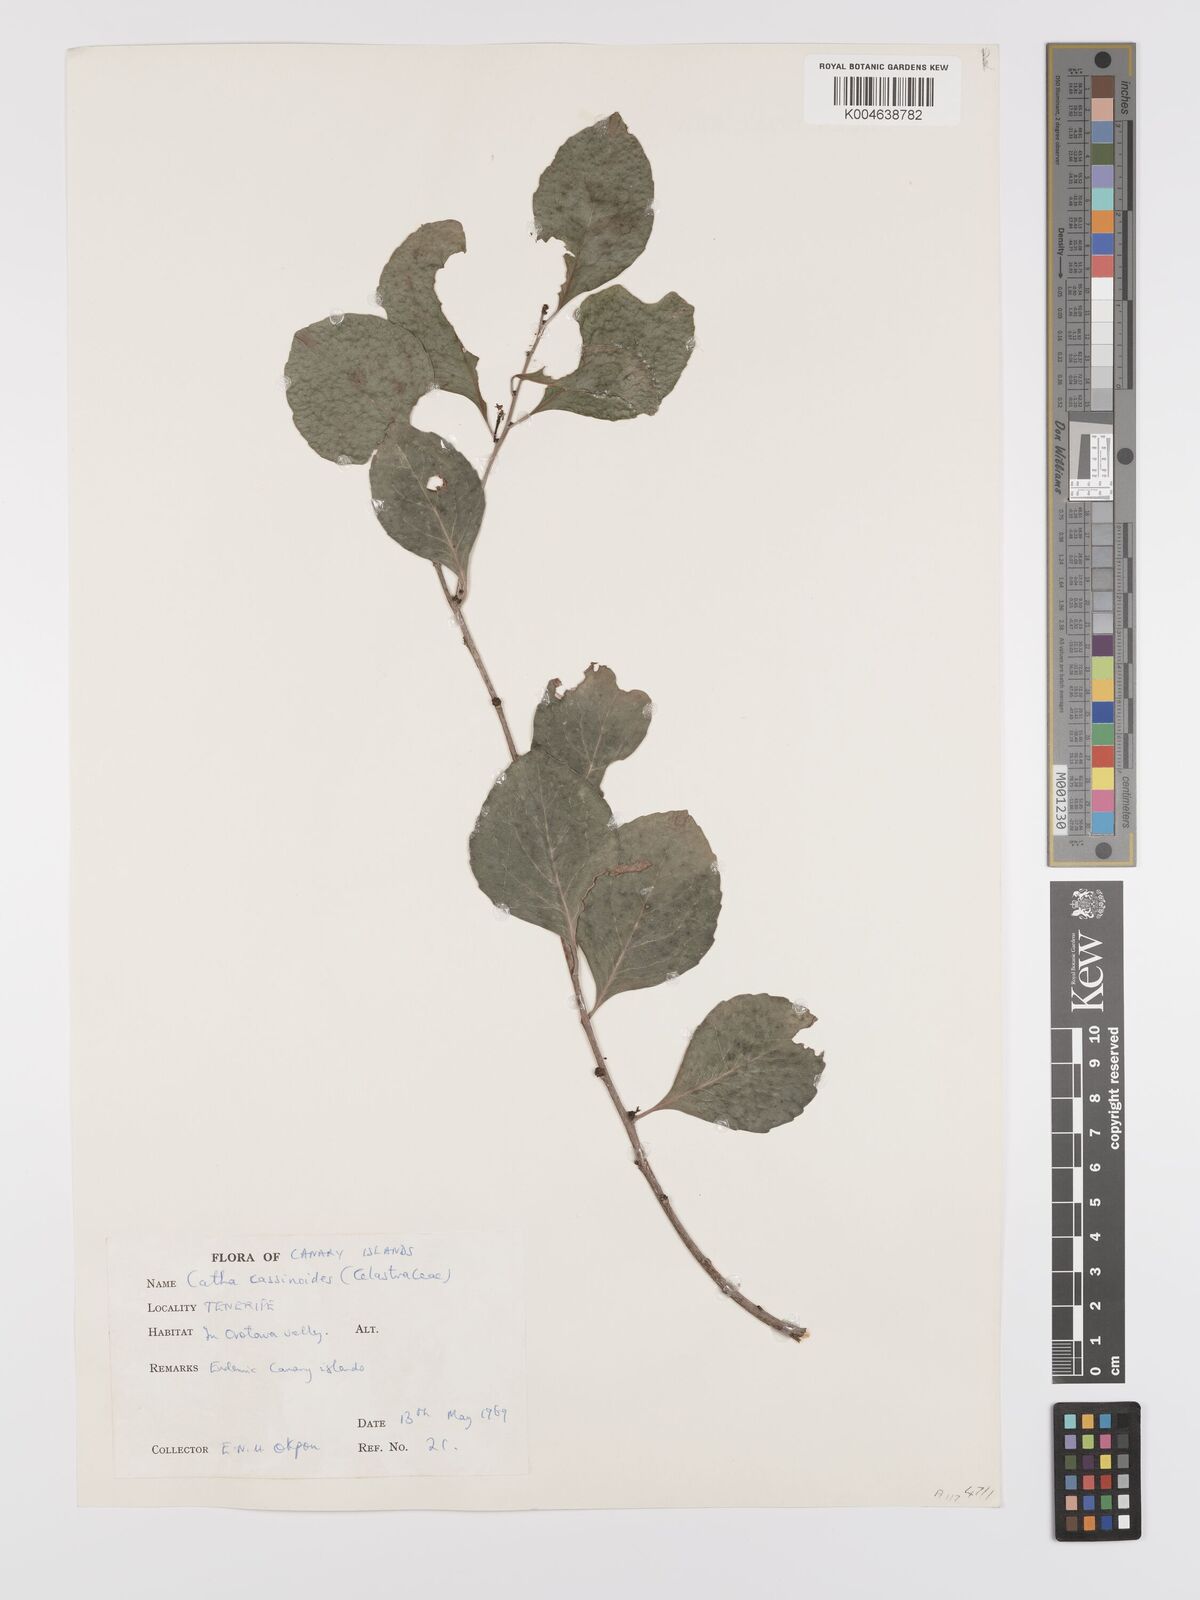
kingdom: Plantae
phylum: Tracheophyta
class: Magnoliopsida
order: Celastrales
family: Celastraceae
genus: Gymnosporia
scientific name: Gymnosporia cassinoides
